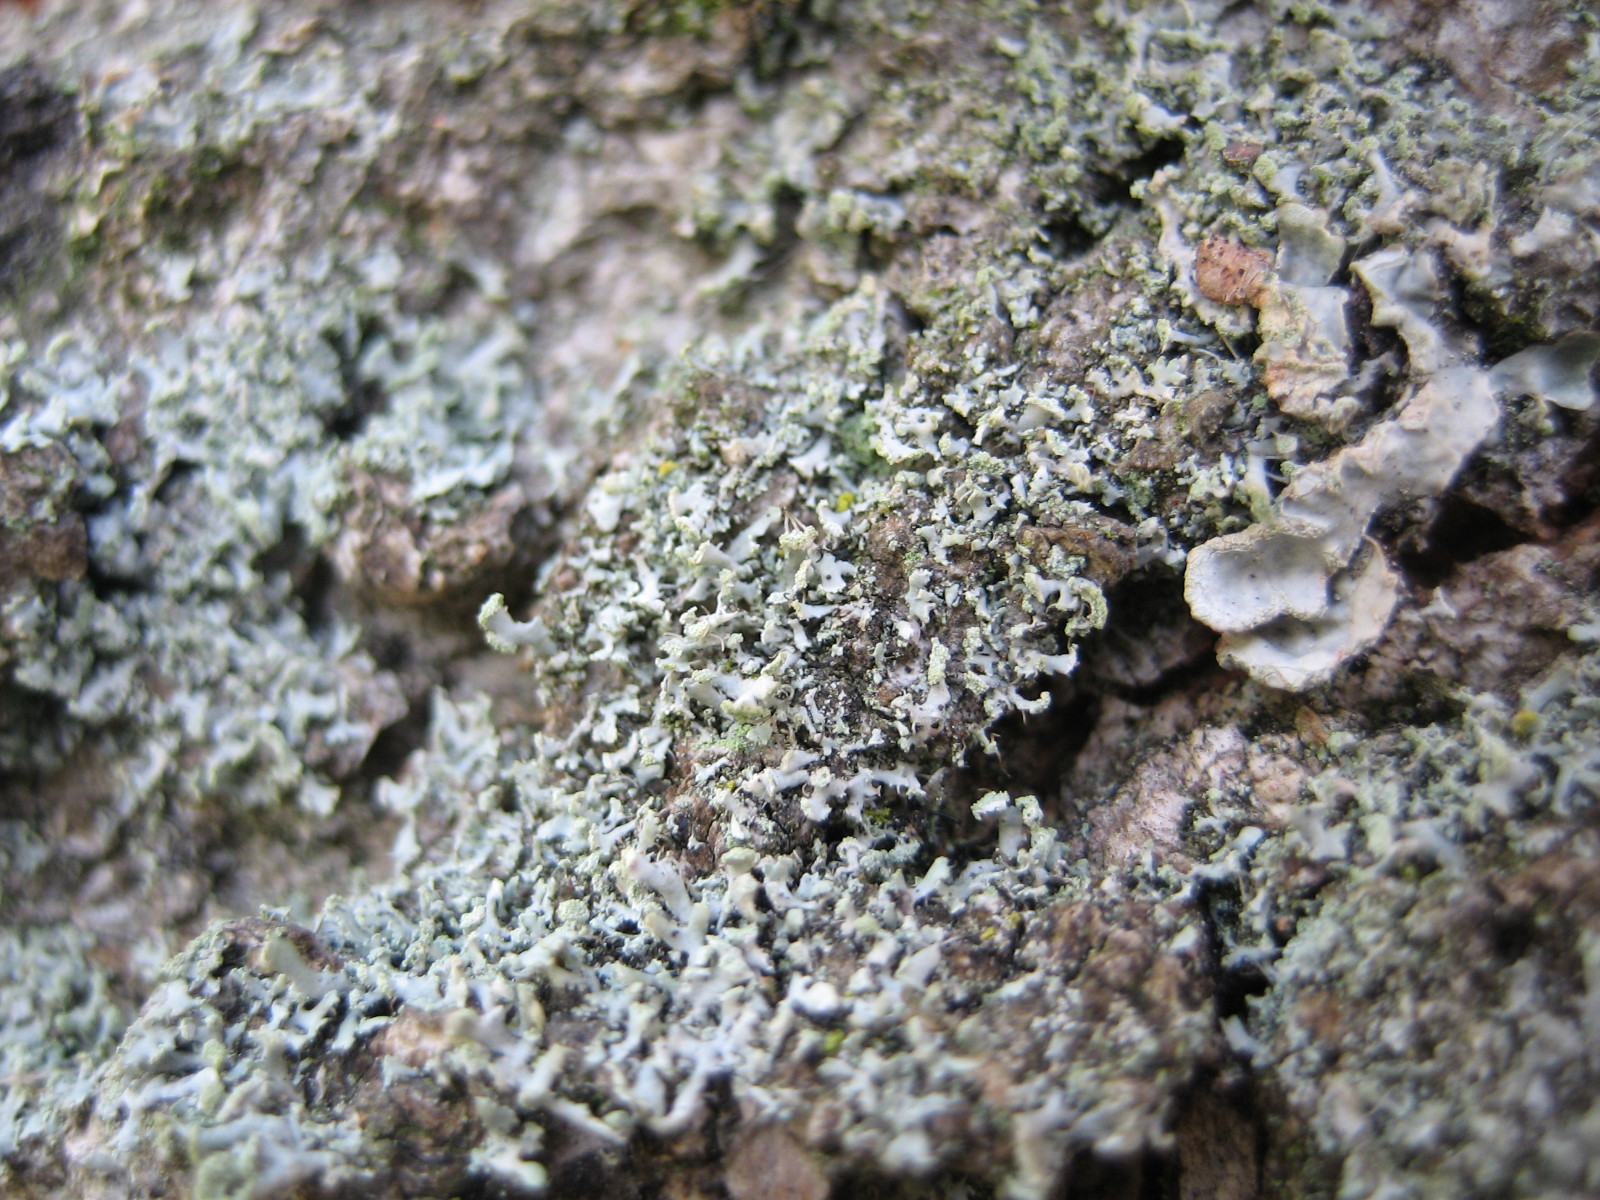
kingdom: Fungi
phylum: Ascomycota
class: Lecanoromycetes
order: Caliciales
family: Physciaceae
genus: Physcia
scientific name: Physcia tenella
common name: spæd rosetlav
